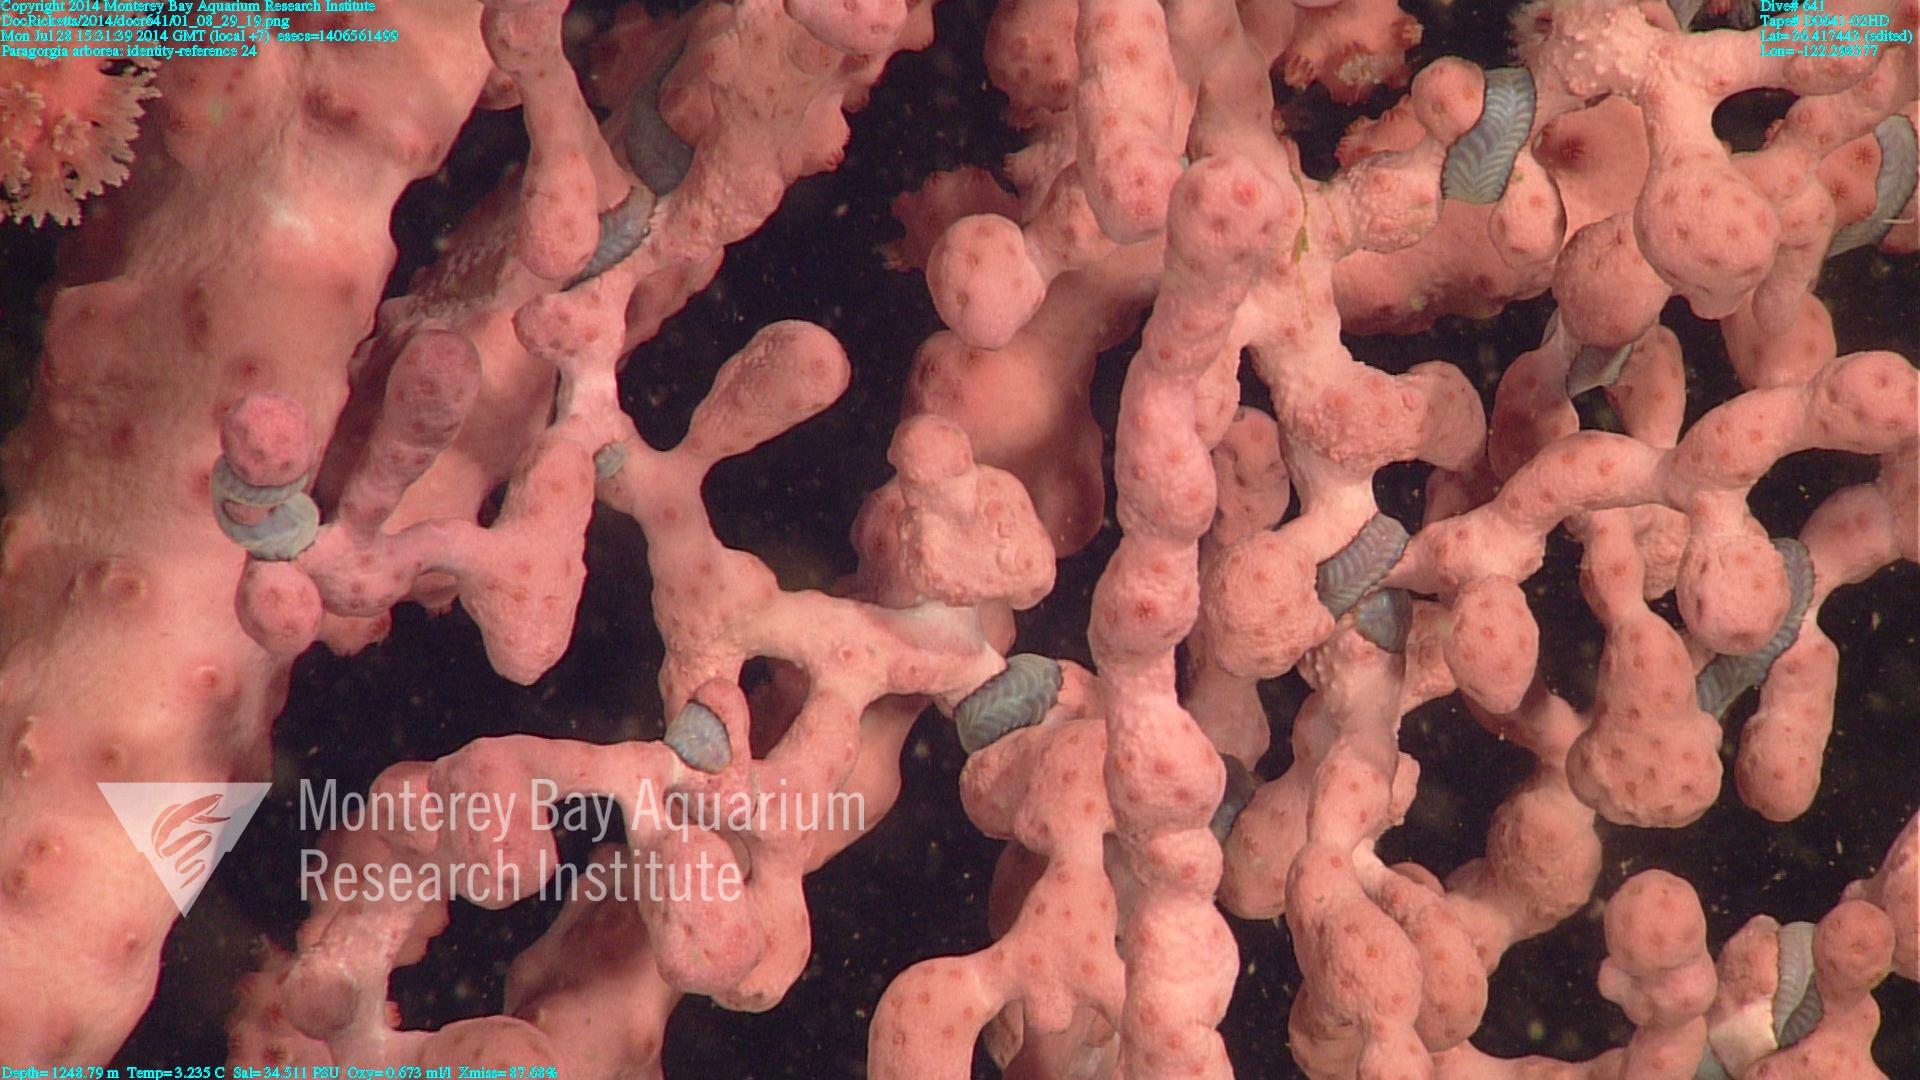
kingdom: Animalia
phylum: Cnidaria
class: Anthozoa
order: Scleralcyonacea
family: Coralliidae
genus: Paragorgia
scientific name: Paragorgia arborea
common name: Bubble gum coral
